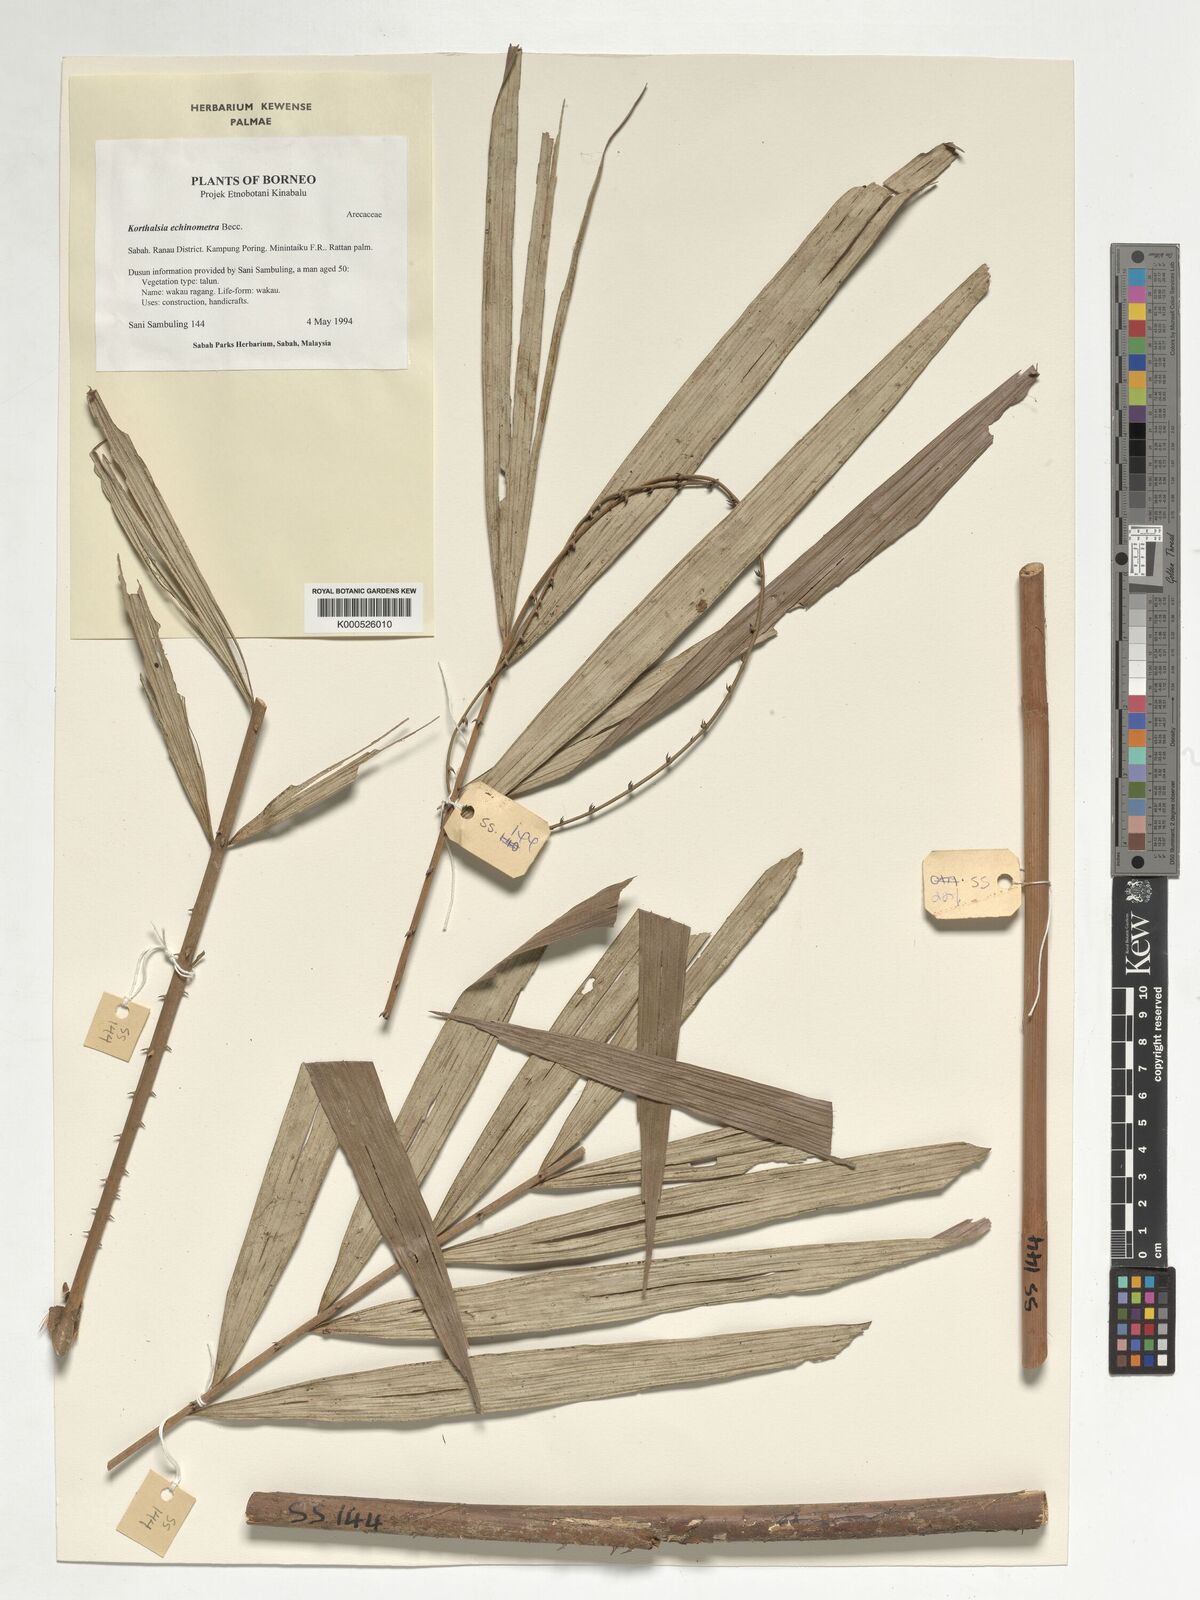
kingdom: Plantae
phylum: Tracheophyta
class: Liliopsida
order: Arecales
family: Arecaceae
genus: Korthalsia
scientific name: Korthalsia echinometra
